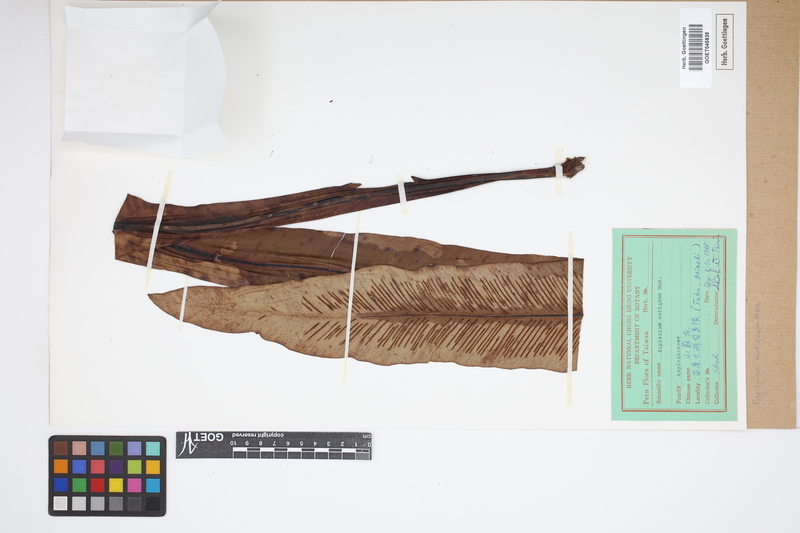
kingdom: Plantae
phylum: Tracheophyta
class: Polypodiopsida
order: Polypodiales
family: Aspleniaceae
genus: Asplenium
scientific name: Asplenium antiquum
